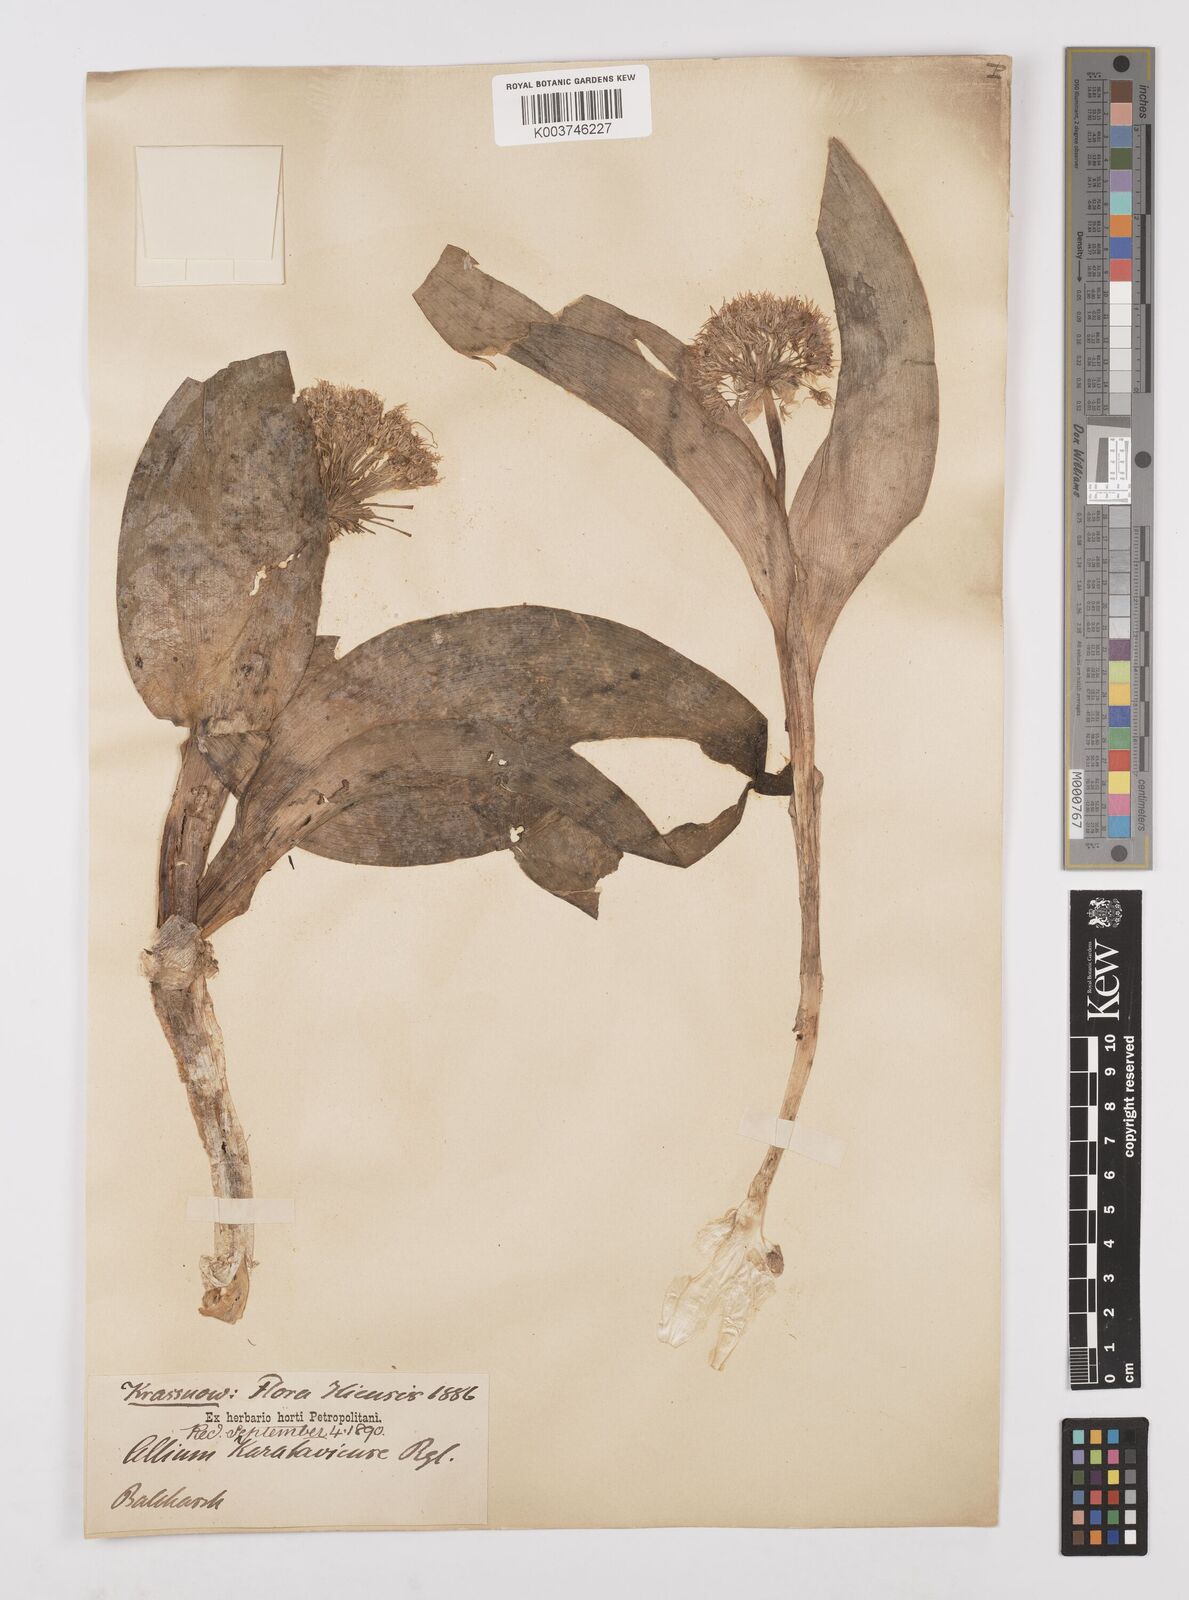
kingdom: Plantae
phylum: Tracheophyta
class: Liliopsida
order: Asparagales
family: Amaryllidaceae
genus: Allium
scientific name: Allium karataviense
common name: Turkestan onion
